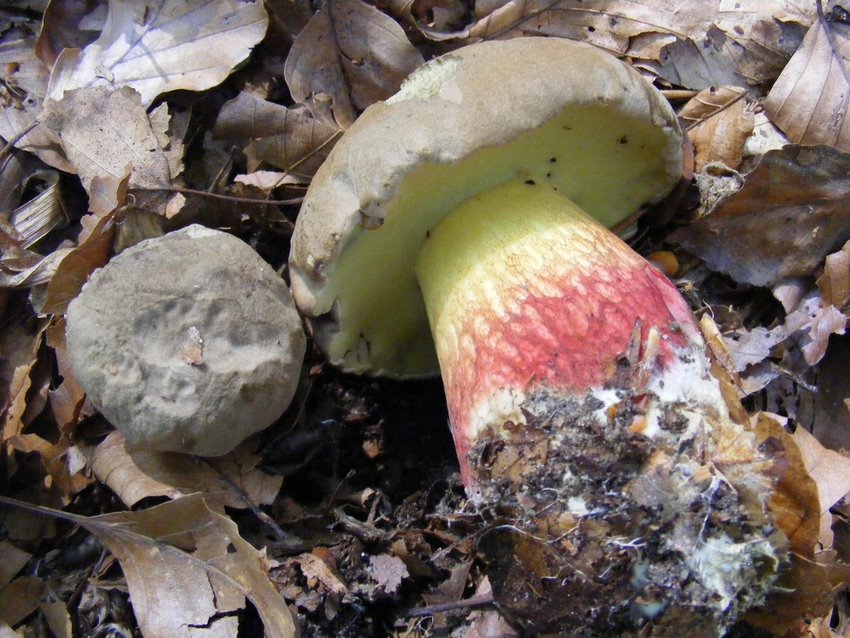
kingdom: Fungi
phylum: Basidiomycota
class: Agaricomycetes
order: Boletales
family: Boletaceae
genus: Caloboletus
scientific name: Caloboletus calopus
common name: skønfodet rørhat
